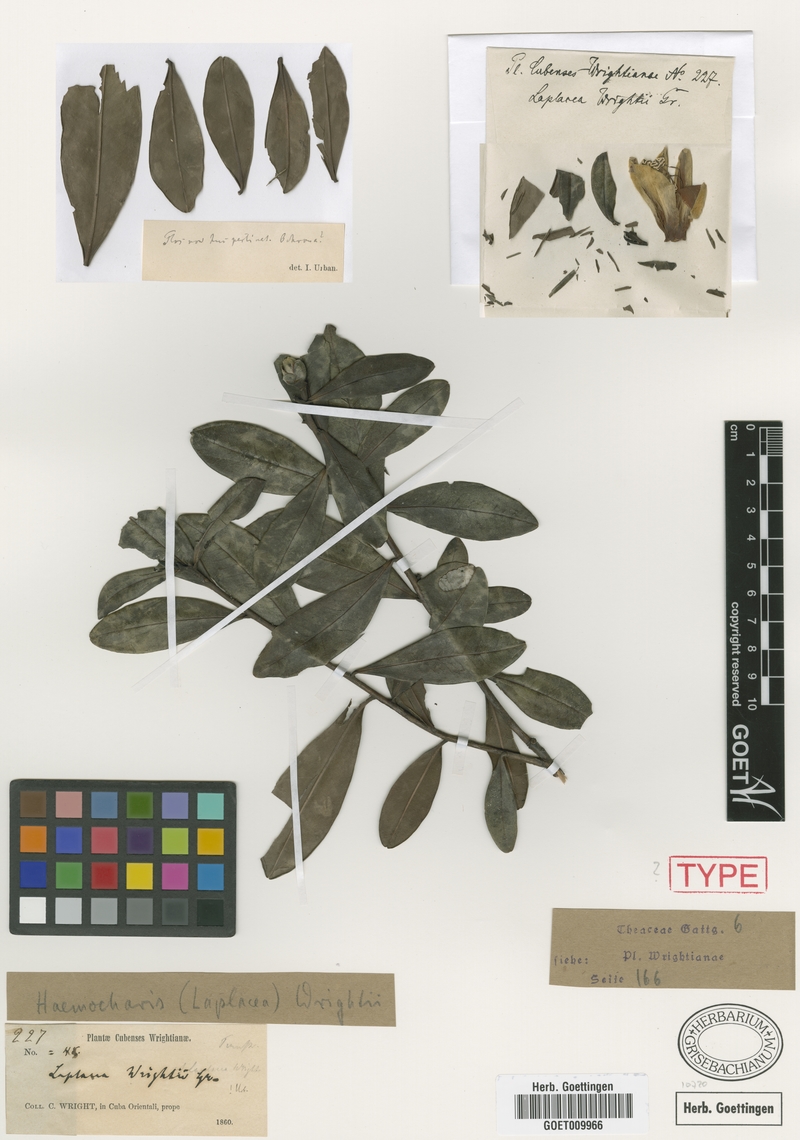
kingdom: Plantae
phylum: Tracheophyta
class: Magnoliopsida
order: Ericales
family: Theaceae
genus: Gordonia
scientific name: Gordonia wrightii
